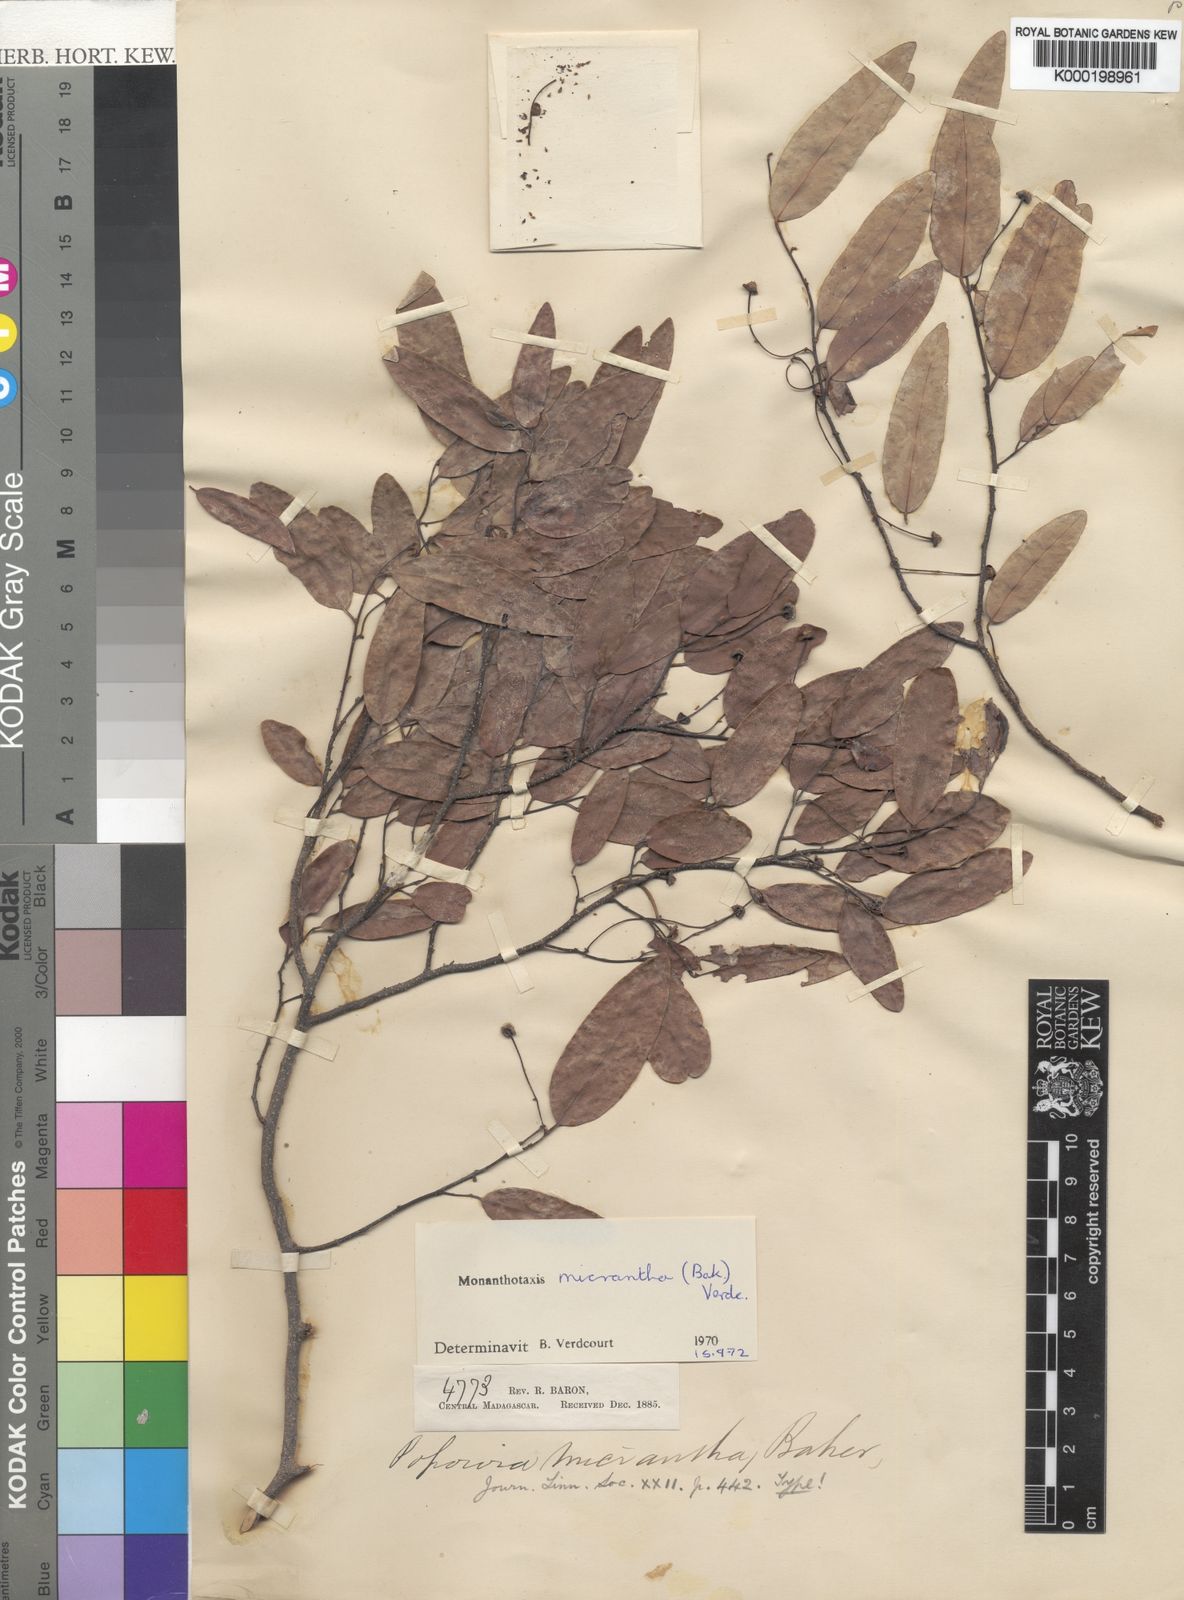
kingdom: Plantae
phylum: Tracheophyta
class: Magnoliopsida
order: Magnoliales
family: Annonaceae
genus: Monanthotaxis
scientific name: Monanthotaxis micrantha
